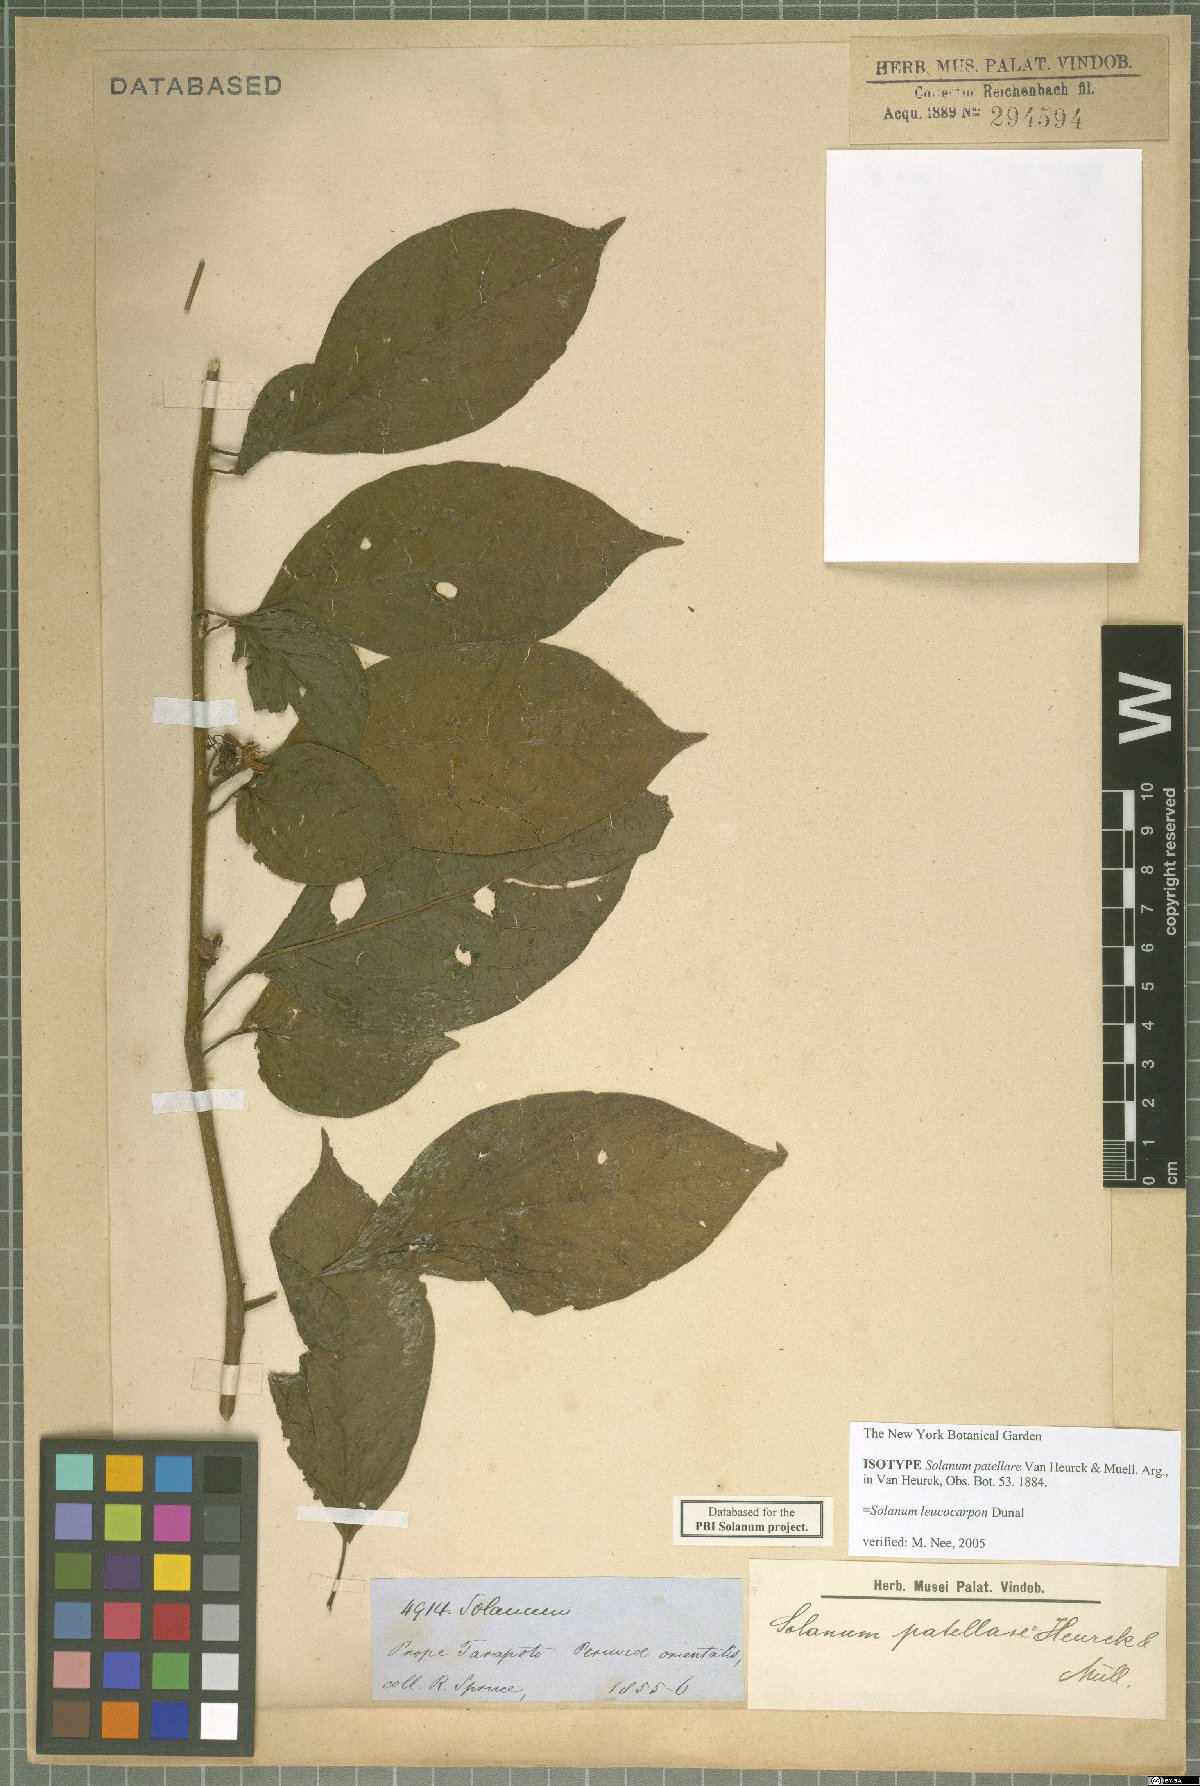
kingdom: Plantae
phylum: Tracheophyta
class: Magnoliopsida
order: Solanales
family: Solanaceae
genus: Solanum
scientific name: Solanum leucocarpon
